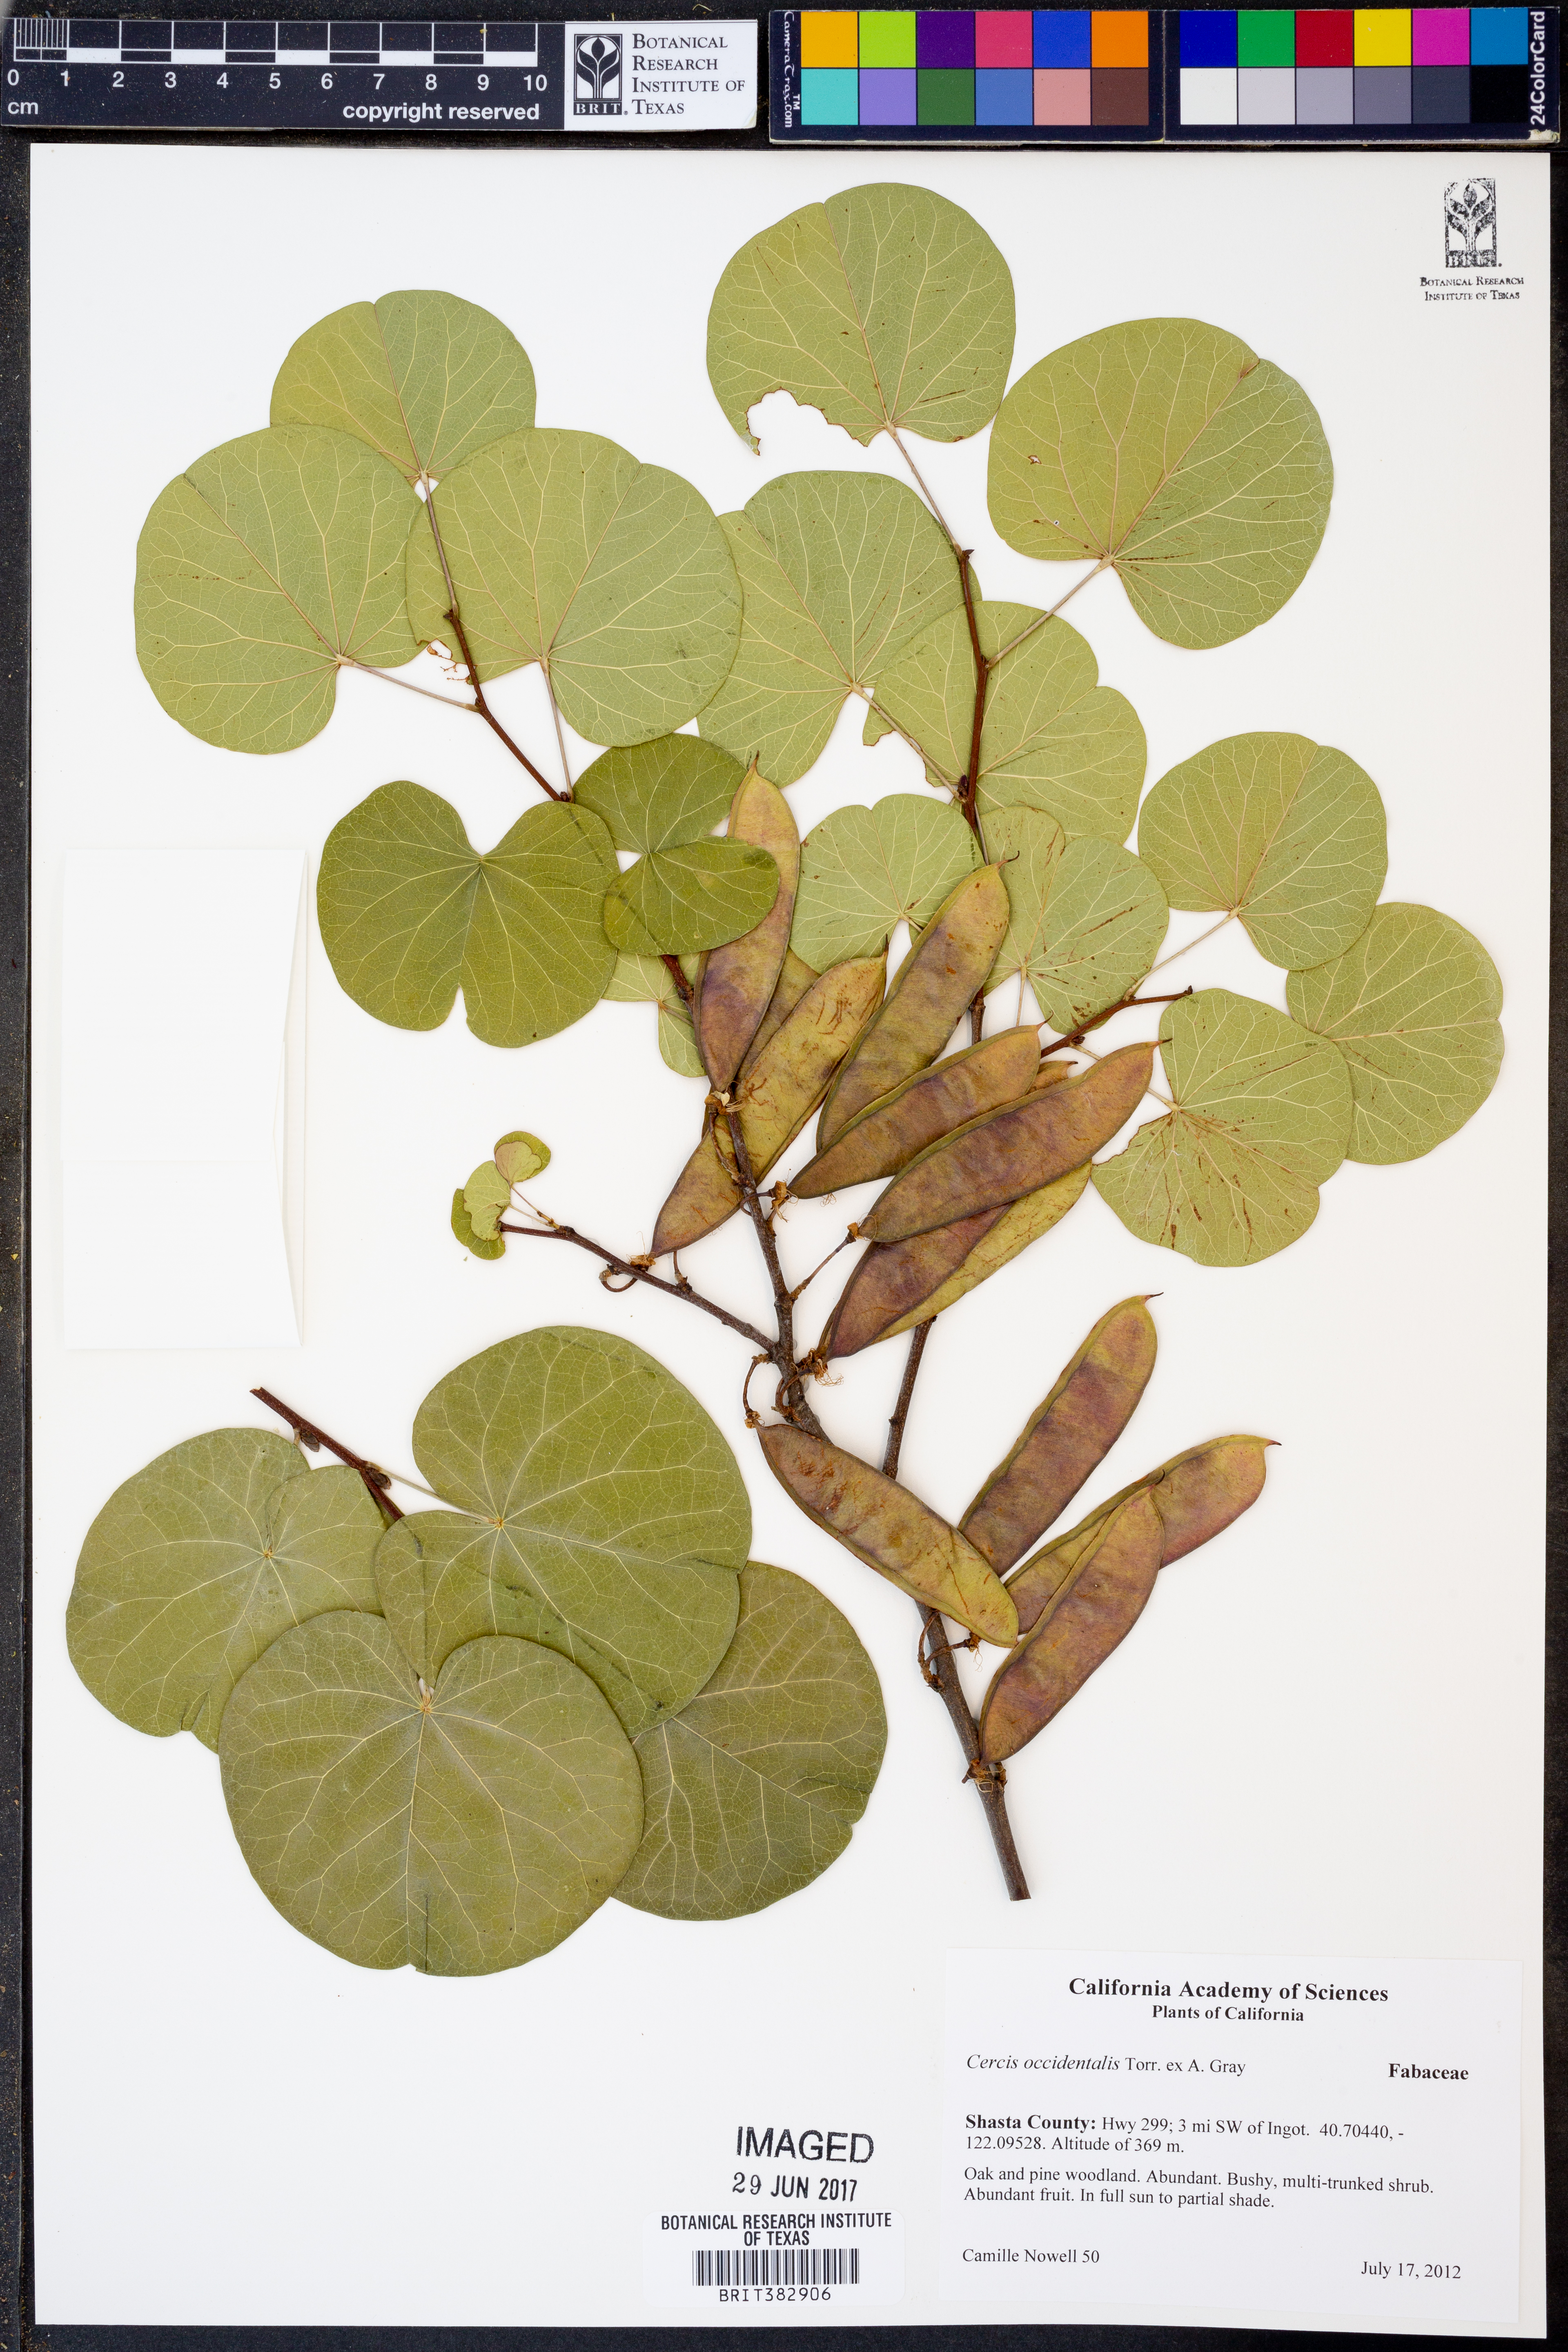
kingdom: Plantae
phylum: Tracheophyta
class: Magnoliopsida
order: Fabales
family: Fabaceae
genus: Cercis
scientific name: Cercis occidentalis
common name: California redbud
